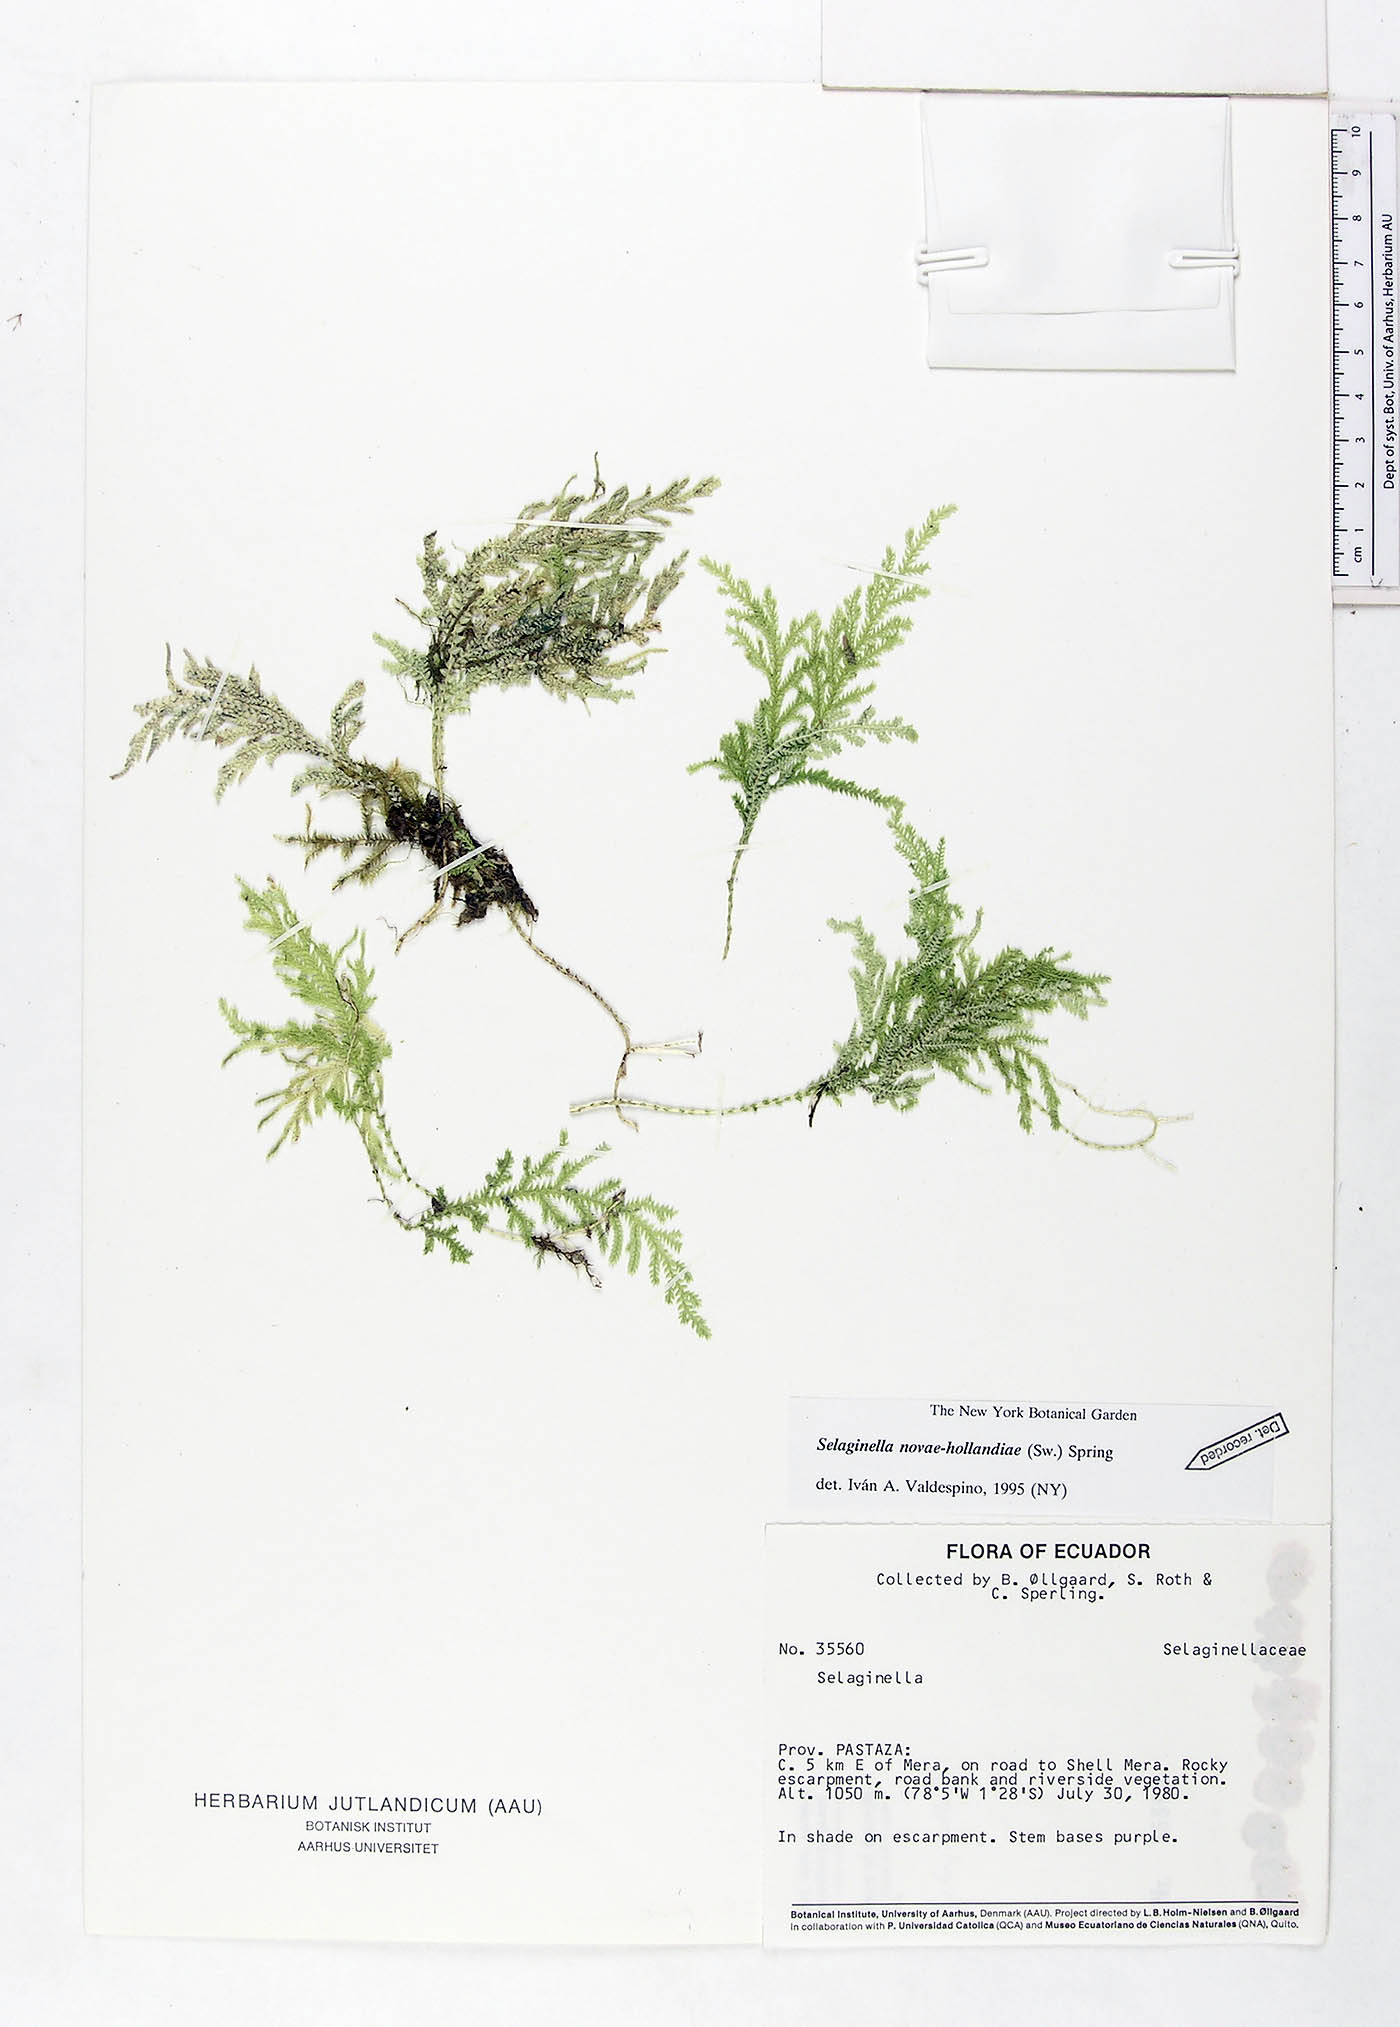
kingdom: Plantae
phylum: Tracheophyta
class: Lycopodiopsida
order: Selaginellales
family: Selaginellaceae
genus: Selaginella
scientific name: Selaginella novae-hollandiae
